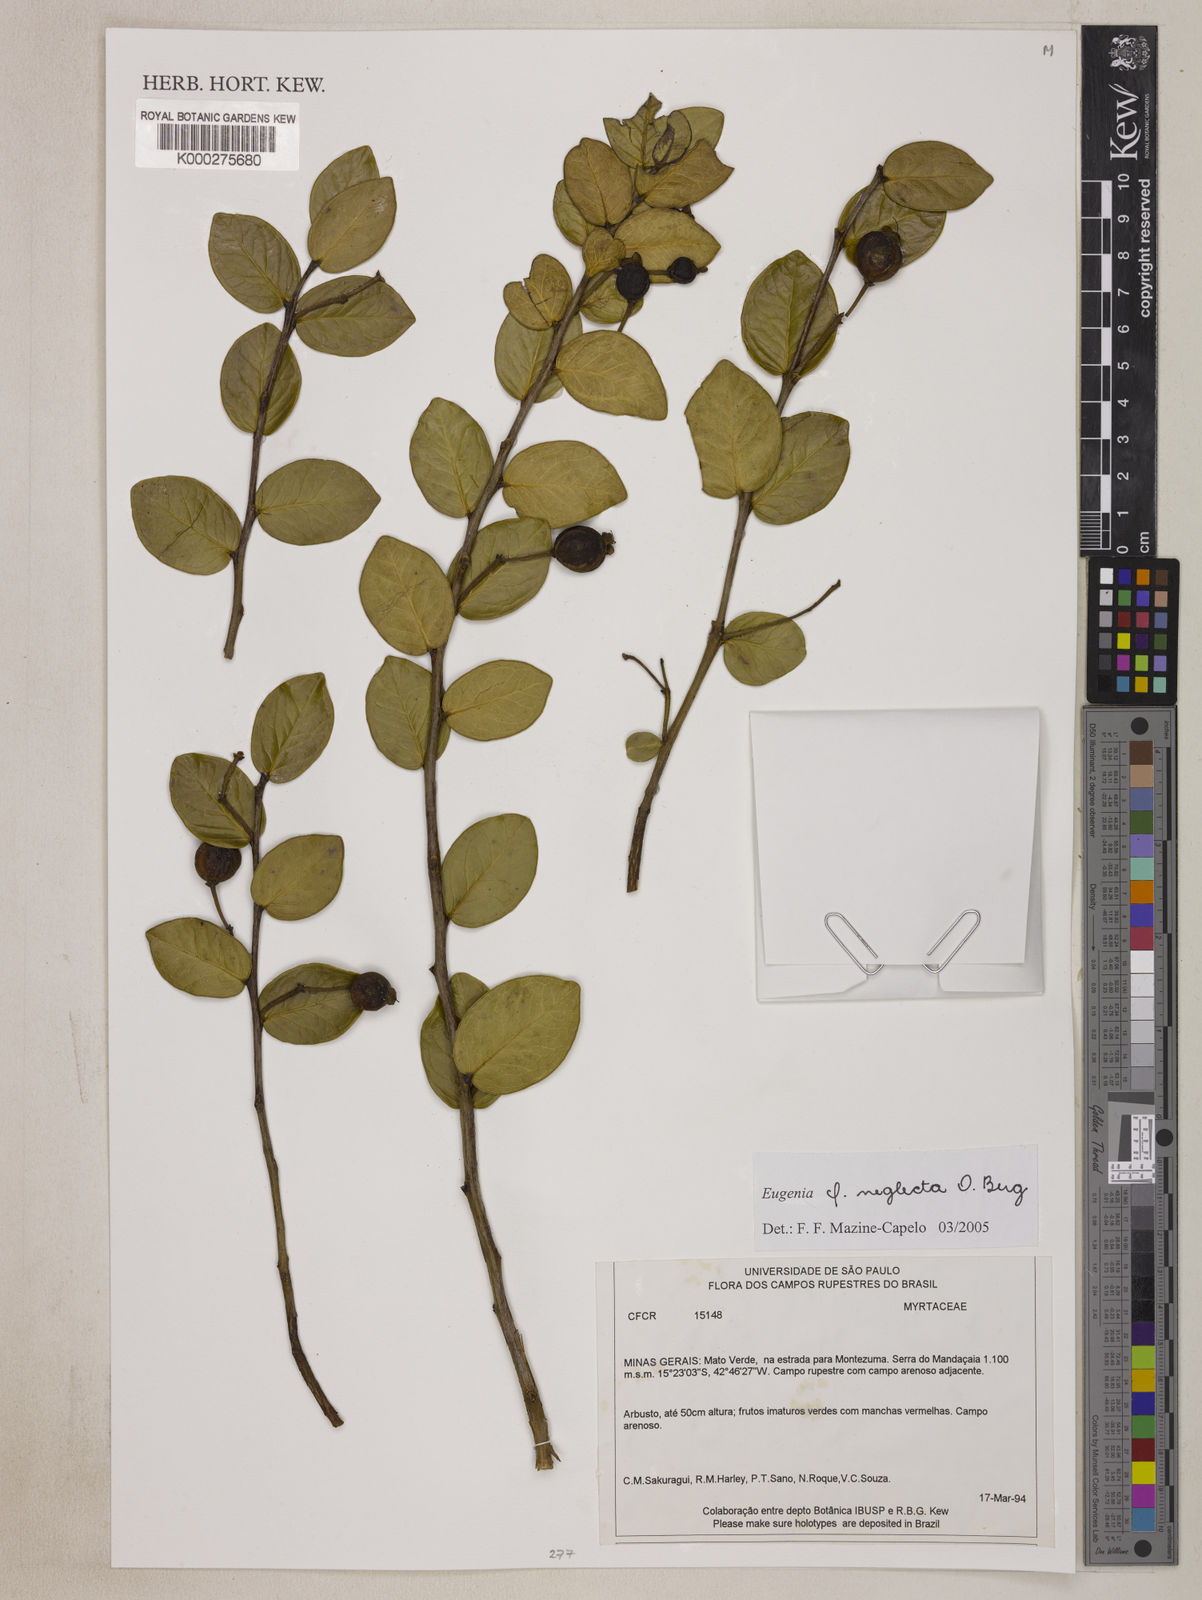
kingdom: Plantae
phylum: Tracheophyta
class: Magnoliopsida
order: Myrtales
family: Myrtaceae
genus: Eugenia
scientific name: Eugenia capparidifolia
